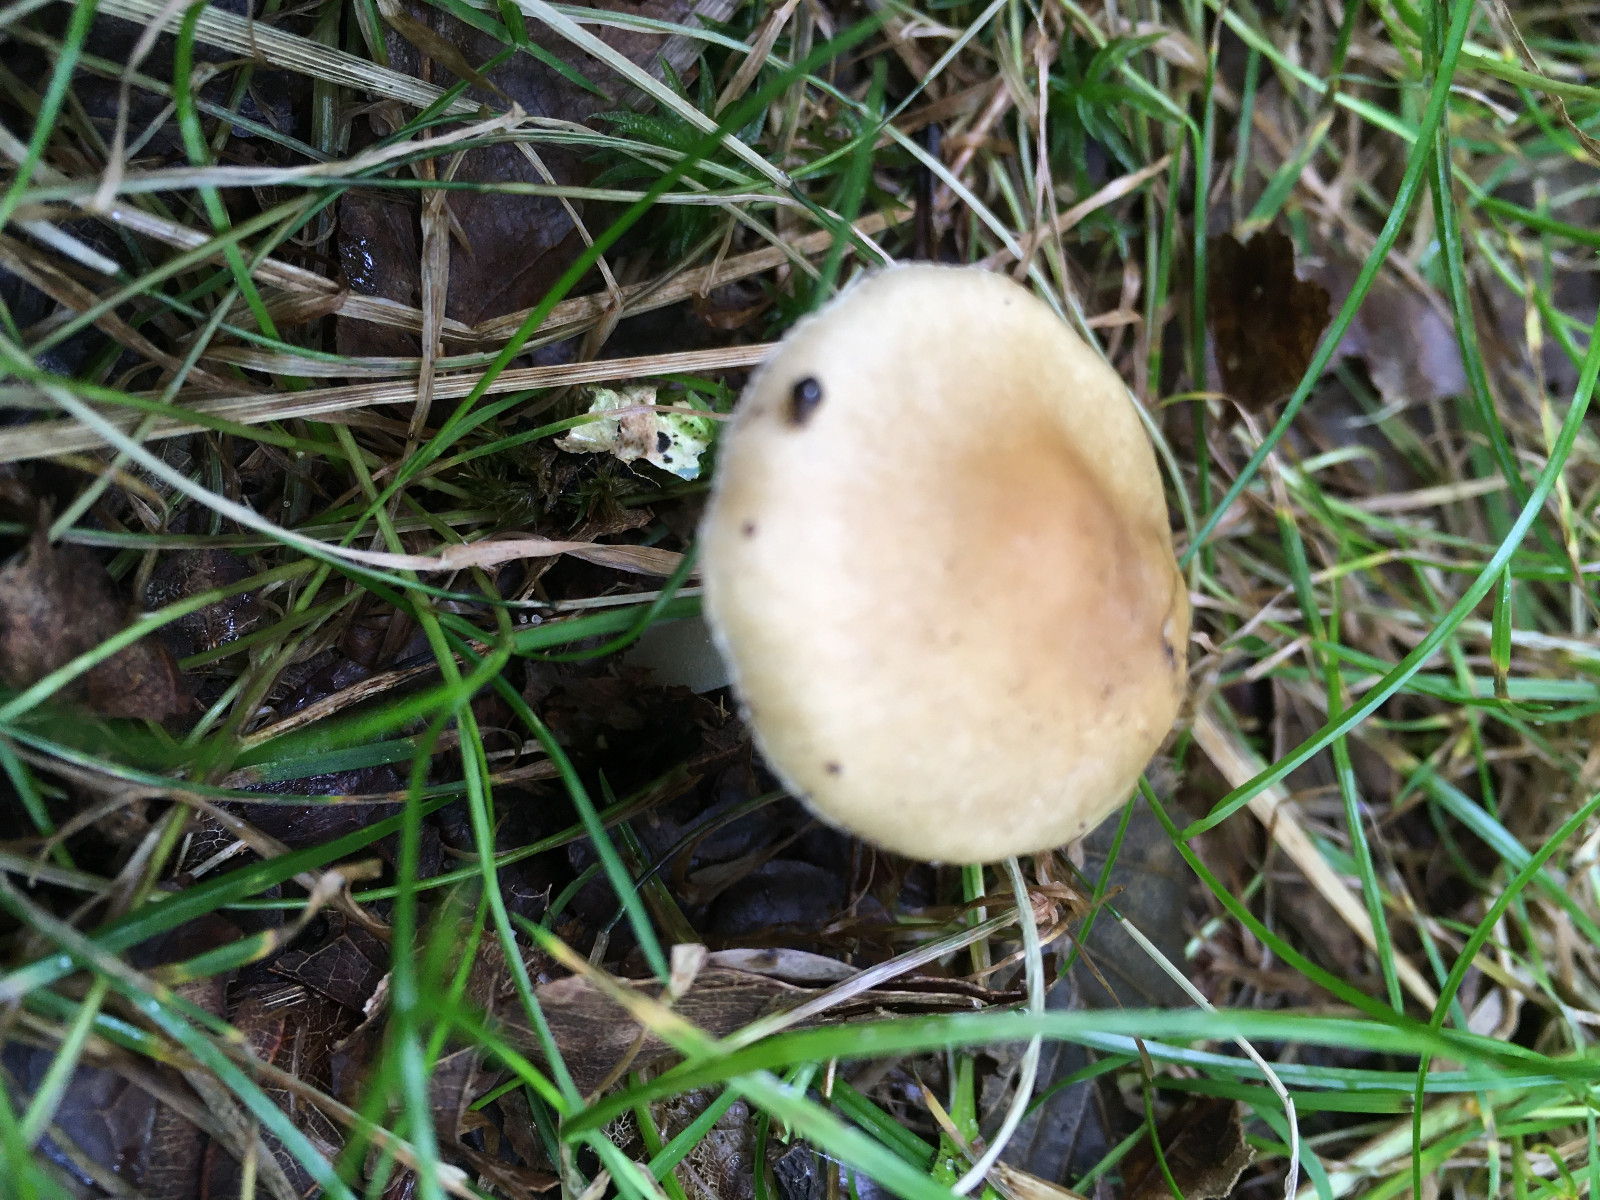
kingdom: Fungi
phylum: Basidiomycota
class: Agaricomycetes
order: Agaricales
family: Inocybaceae
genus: Inocybe
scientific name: Inocybe occulta
